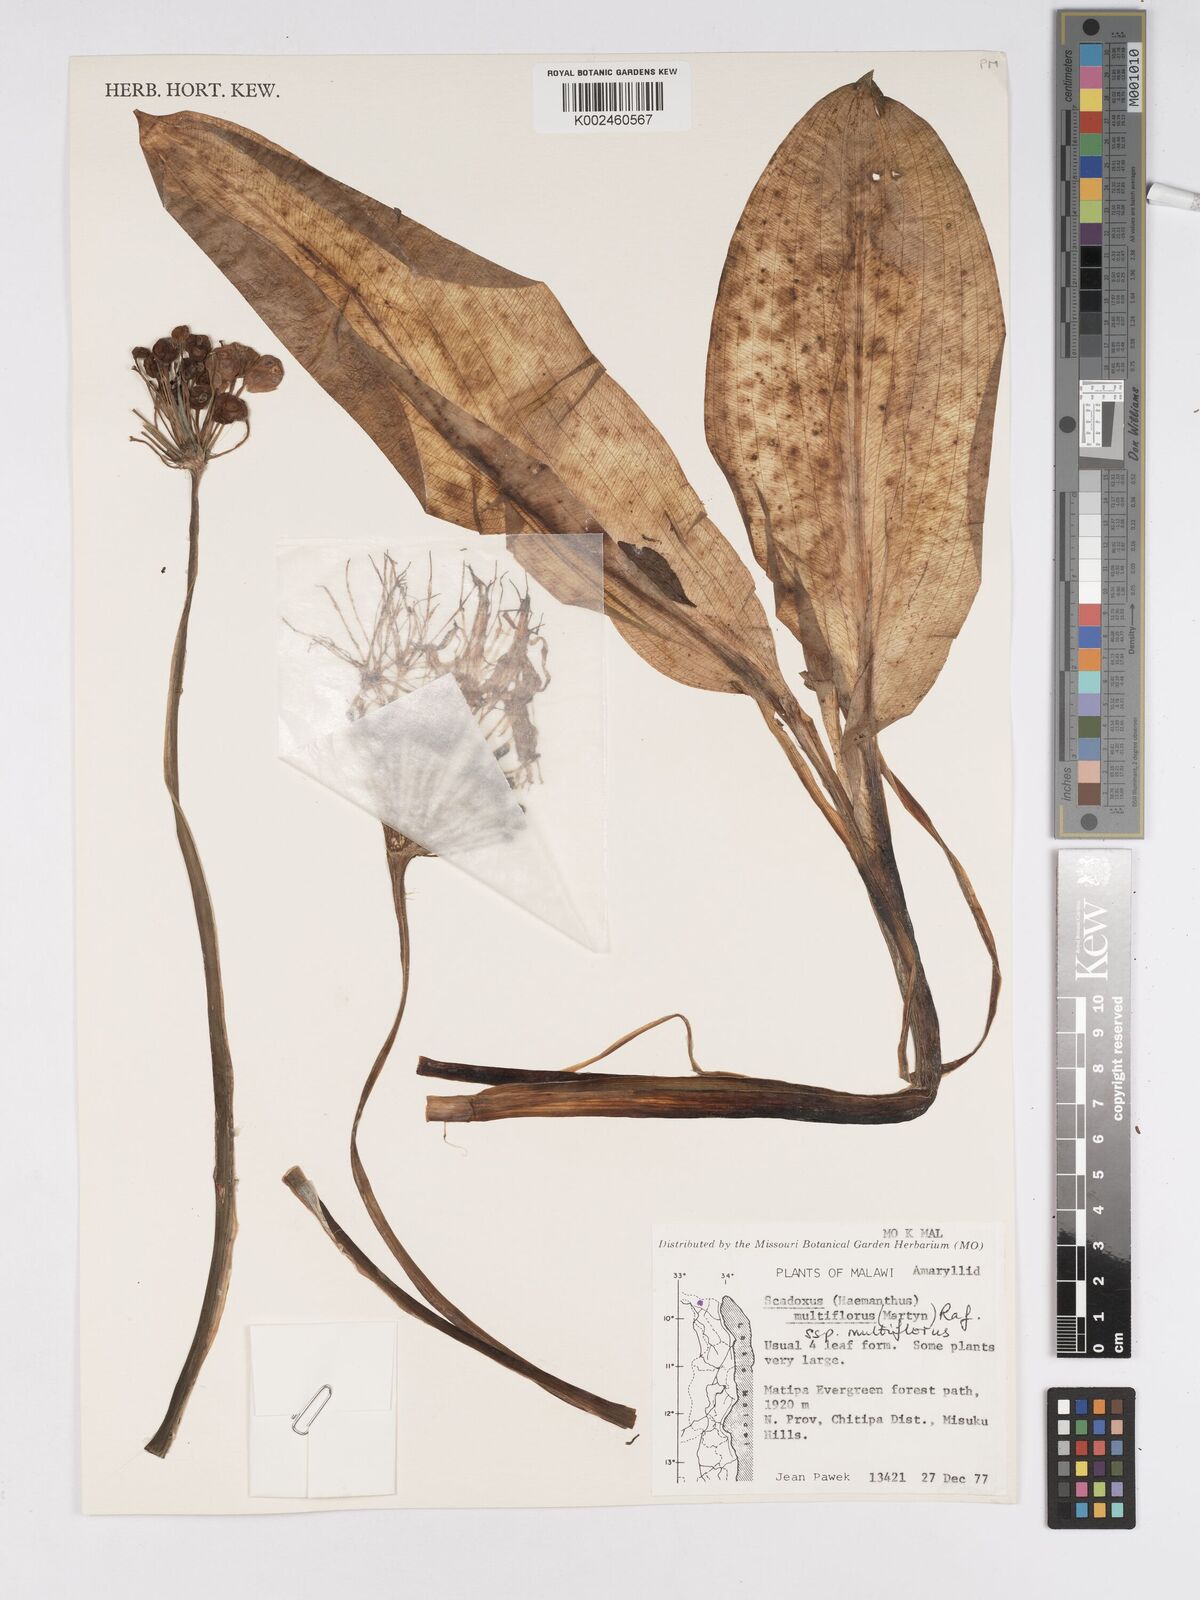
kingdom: Plantae
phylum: Tracheophyta
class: Liliopsida
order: Asparagales
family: Amaryllidaceae
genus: Scadoxus
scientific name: Scadoxus multiflorus
